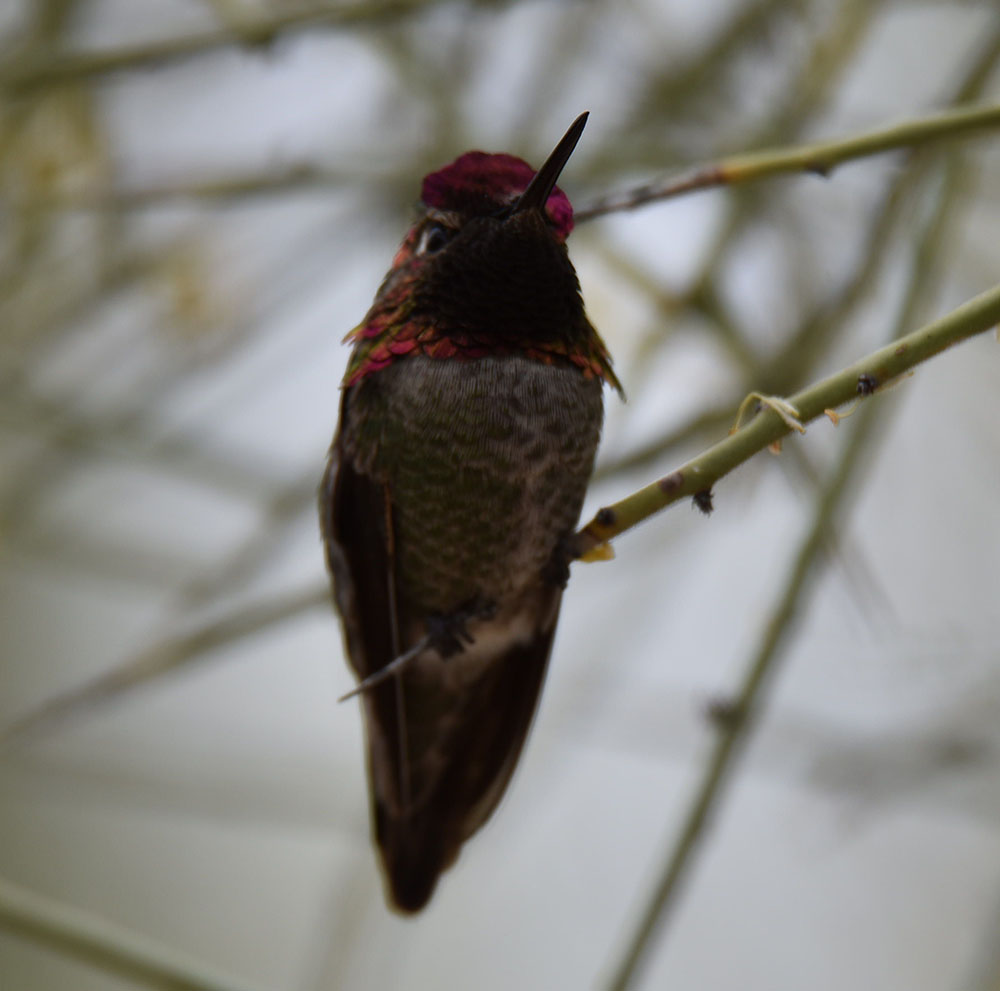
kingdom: Animalia
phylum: Chordata
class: Aves
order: Apodiformes
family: Trochilidae
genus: Calypte
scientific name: Calypte anna
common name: Anna's hummingbird
